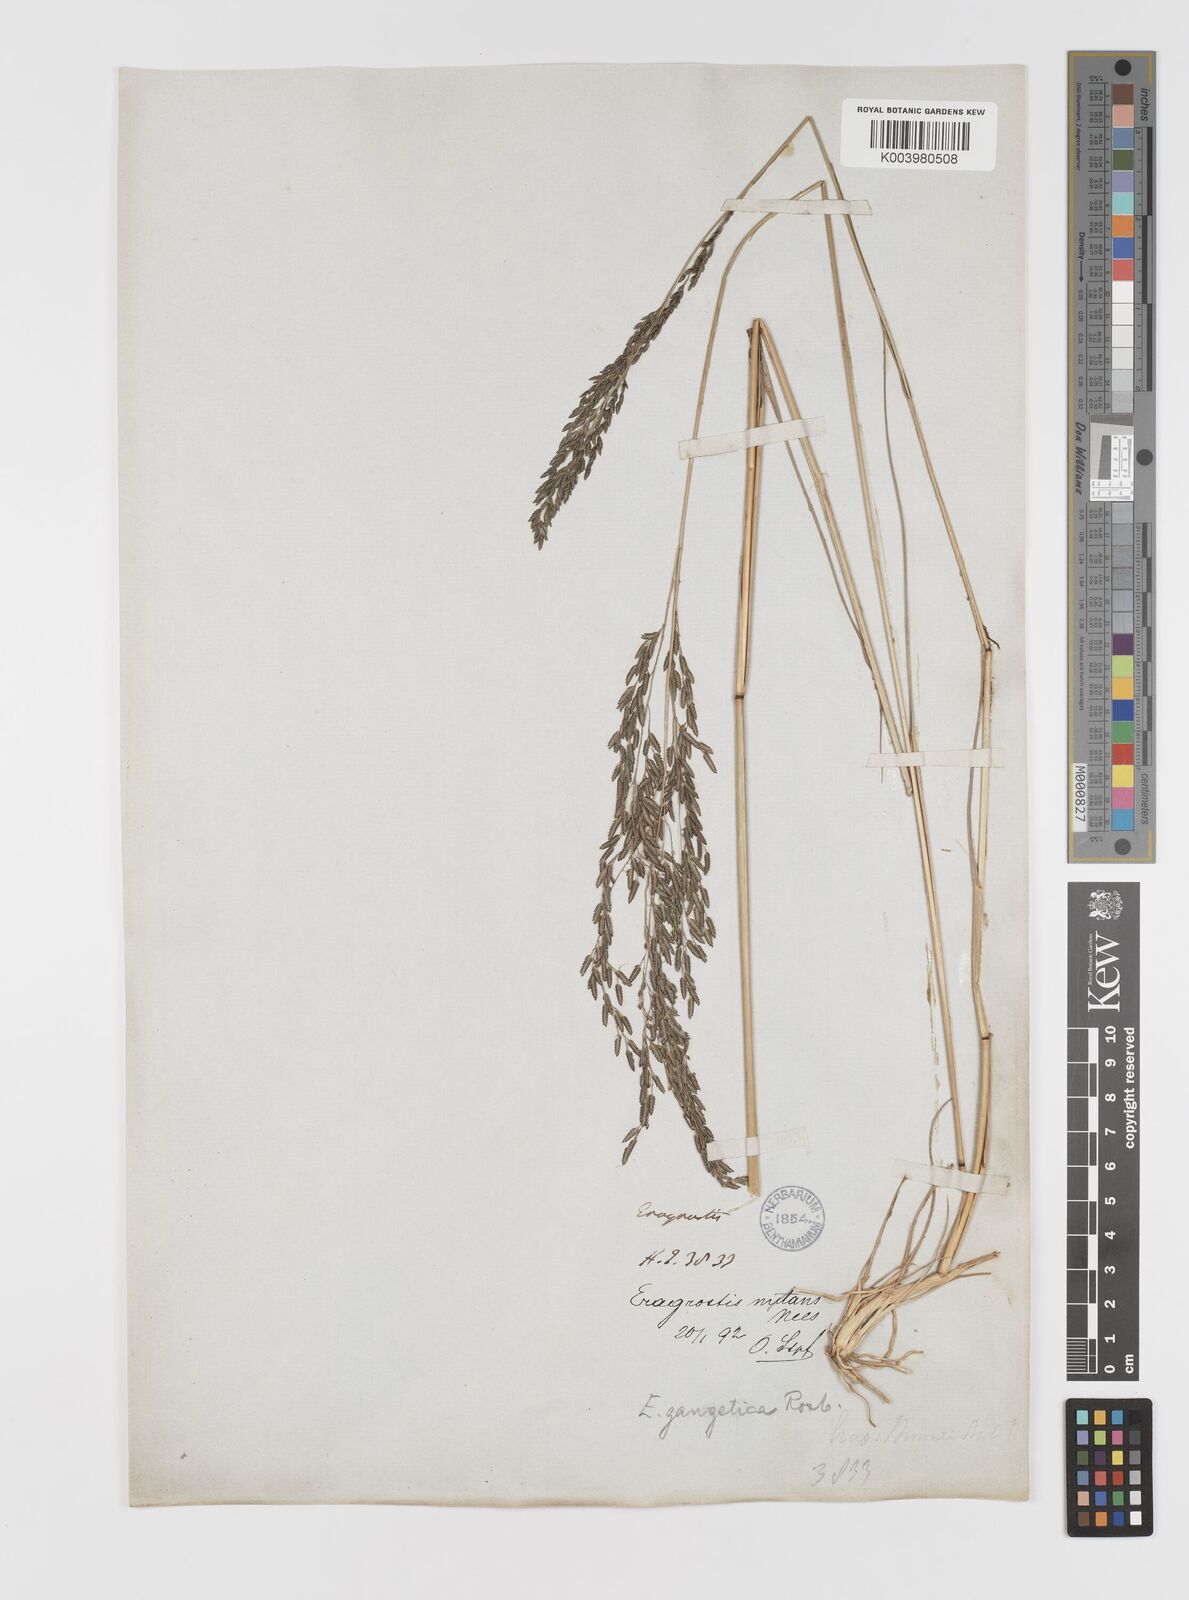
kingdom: Plantae
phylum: Tracheophyta
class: Liliopsida
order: Poales
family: Poaceae
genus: Eragrostis
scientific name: Eragrostis
